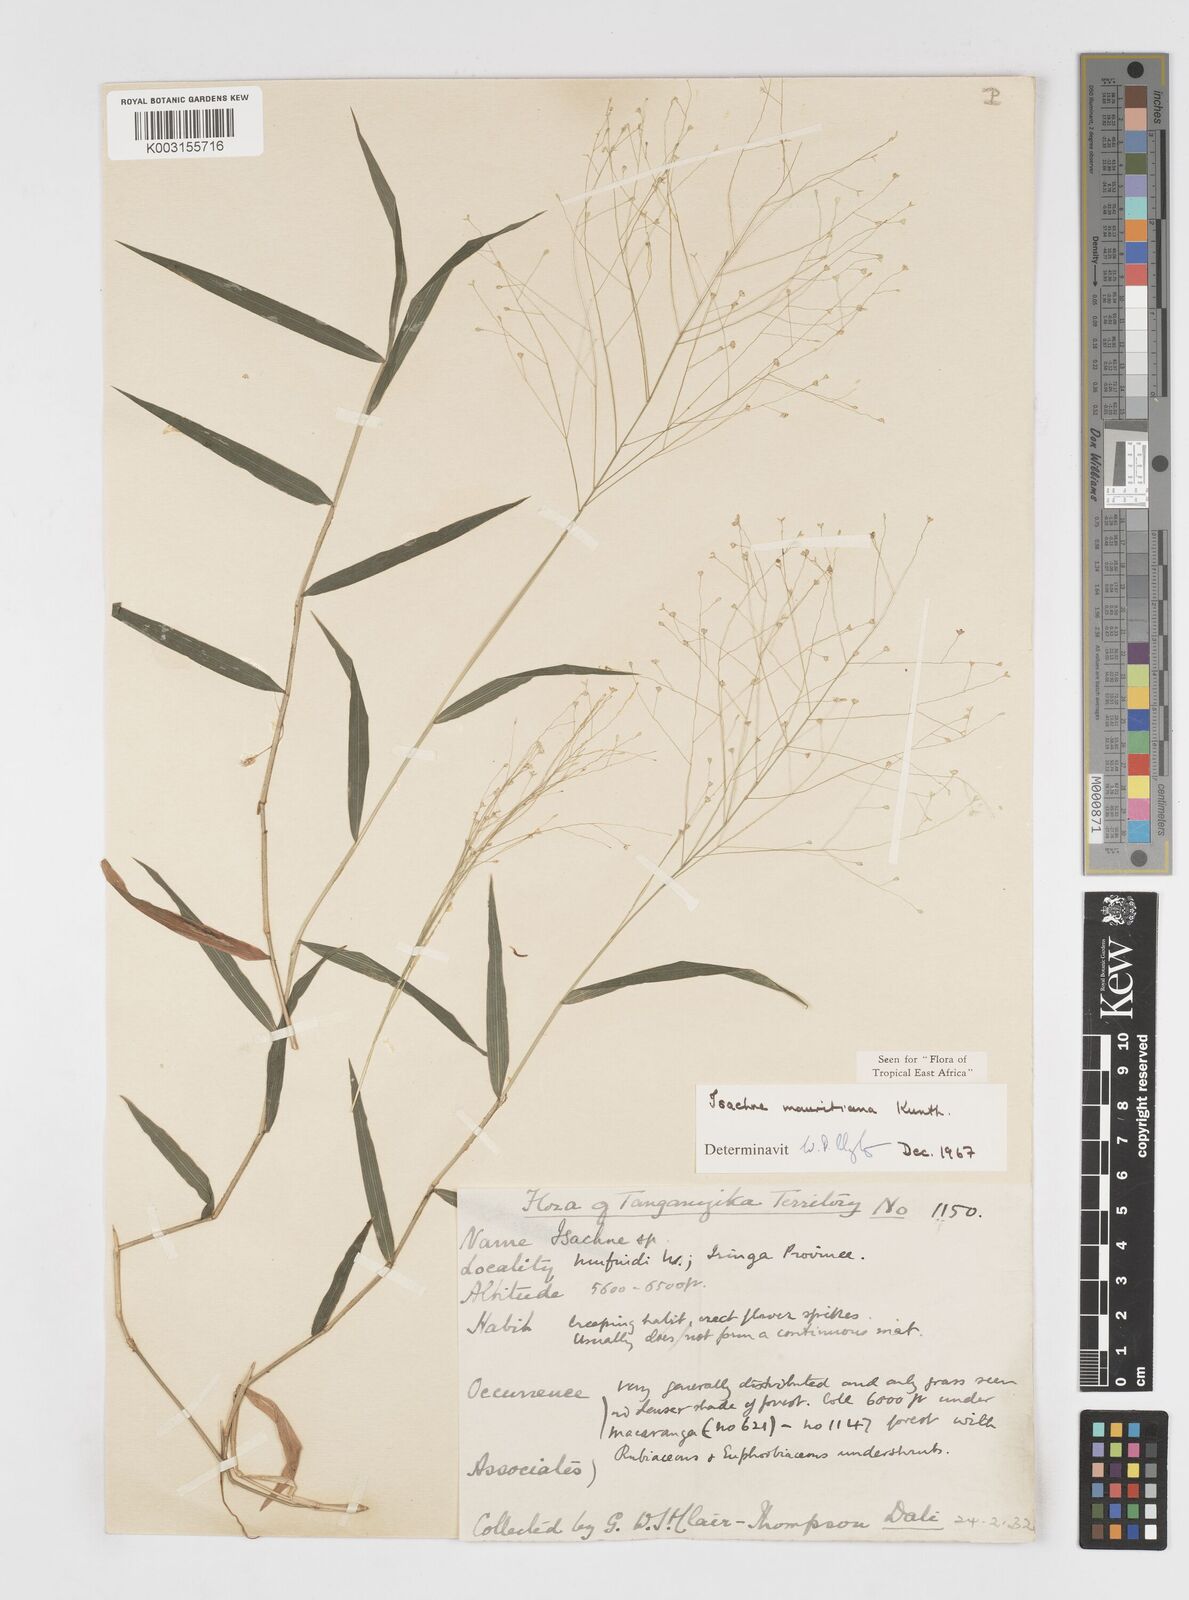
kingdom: Plantae
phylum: Tracheophyta
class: Liliopsida
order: Poales
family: Poaceae
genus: Isachne
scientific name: Isachne mauritiana
